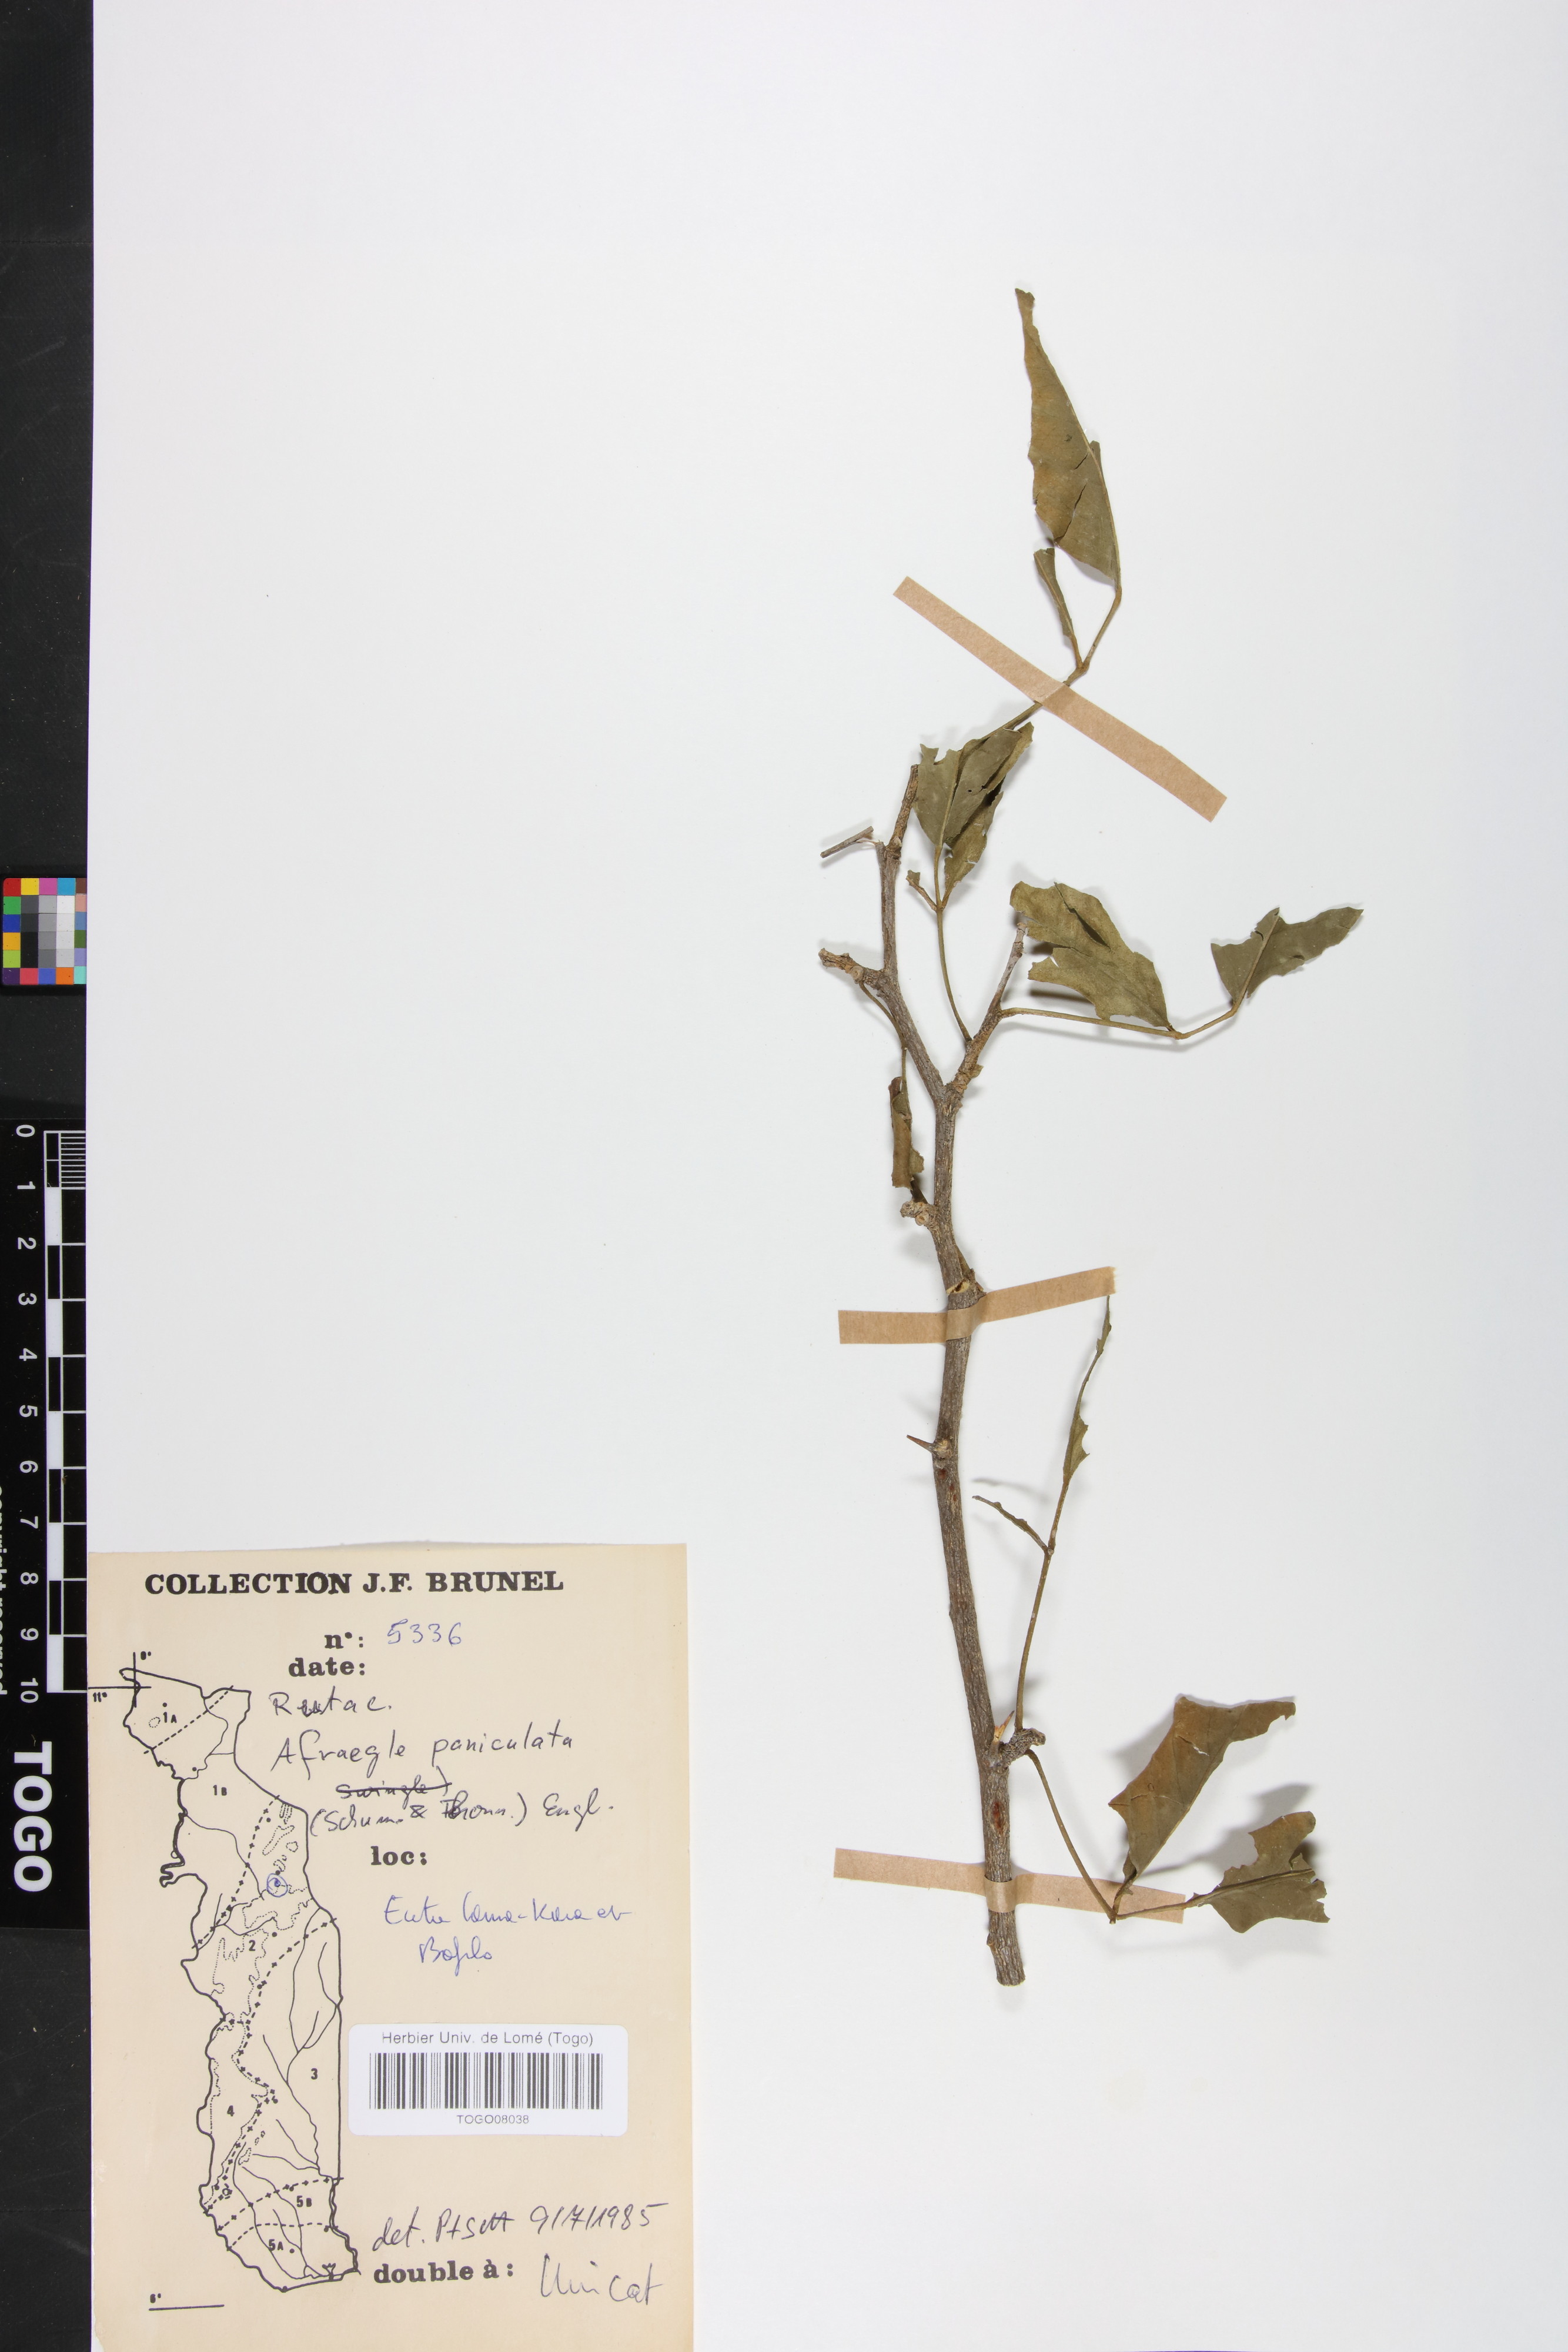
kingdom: Plantae
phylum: Tracheophyta
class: Magnoliopsida
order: Sapindales
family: Rutaceae
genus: Afraegle
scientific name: Afraegle paniculata
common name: Guin-guin
